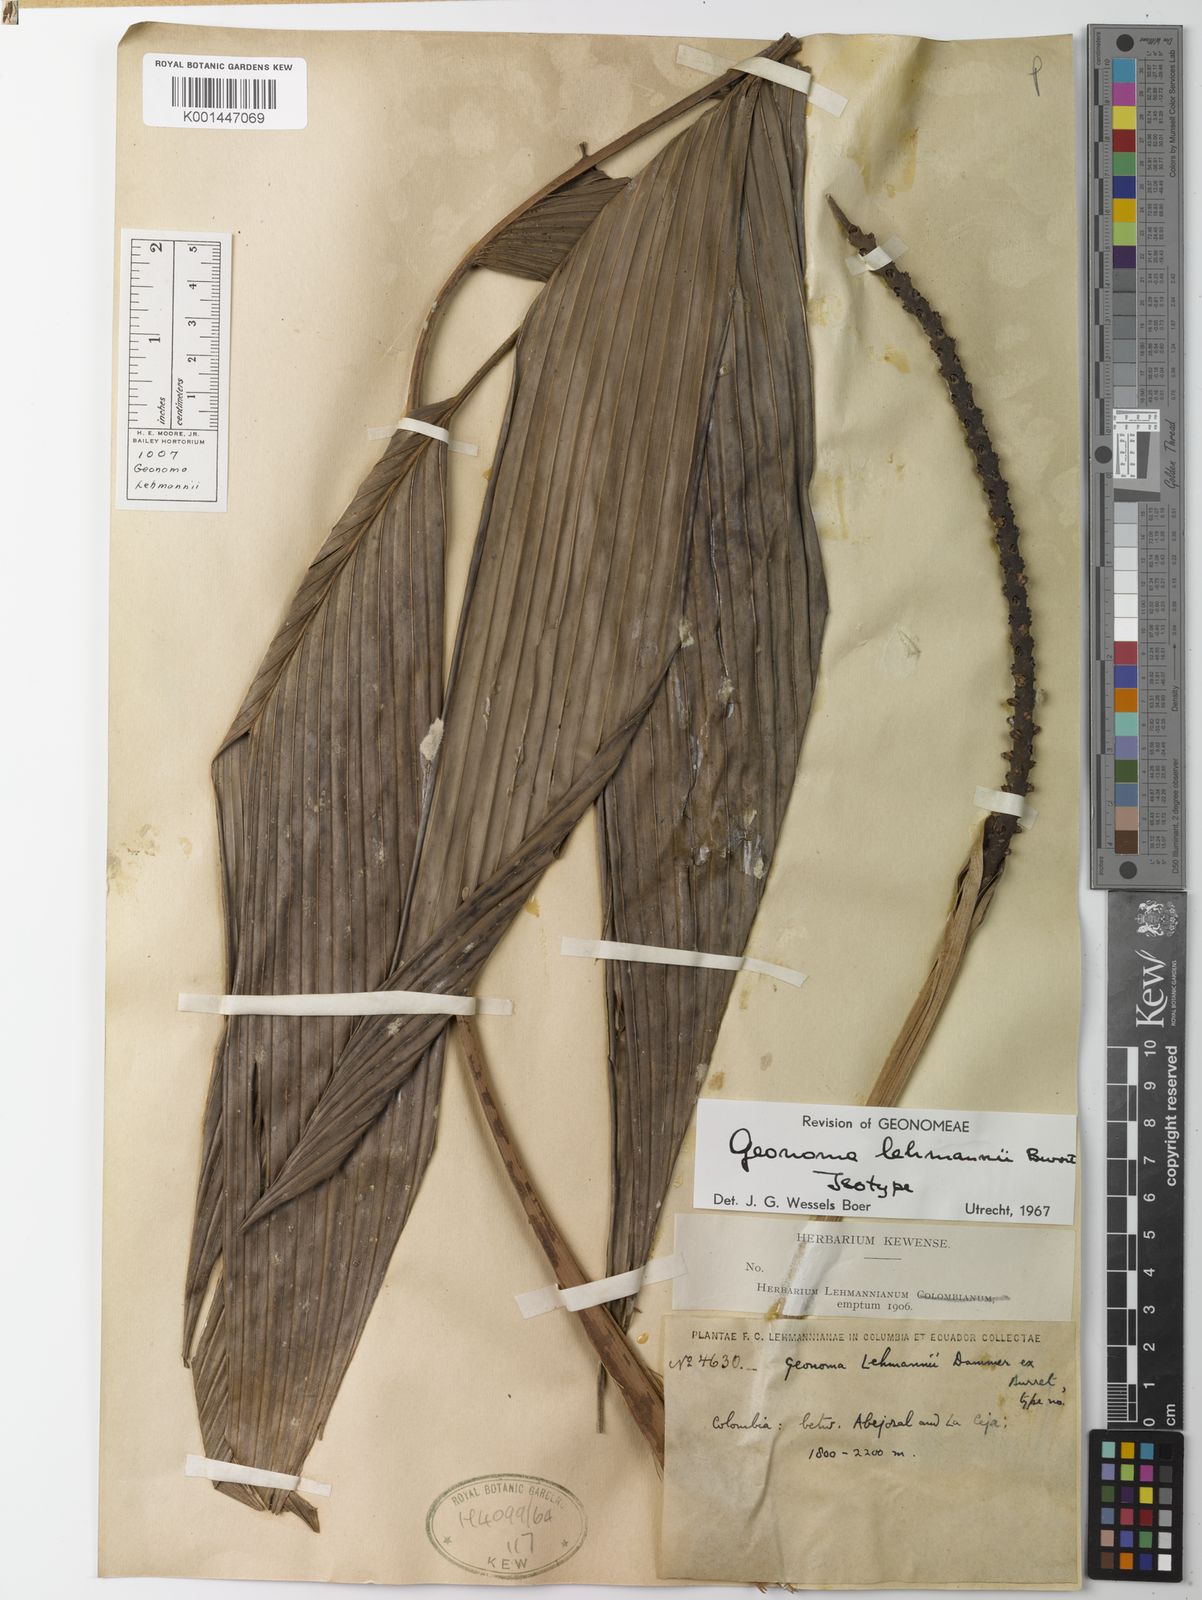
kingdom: Plantae
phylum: Tracheophyta
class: Liliopsida
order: Arecales
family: Arecaceae
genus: Geonoma
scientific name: Geonoma lehmannii
